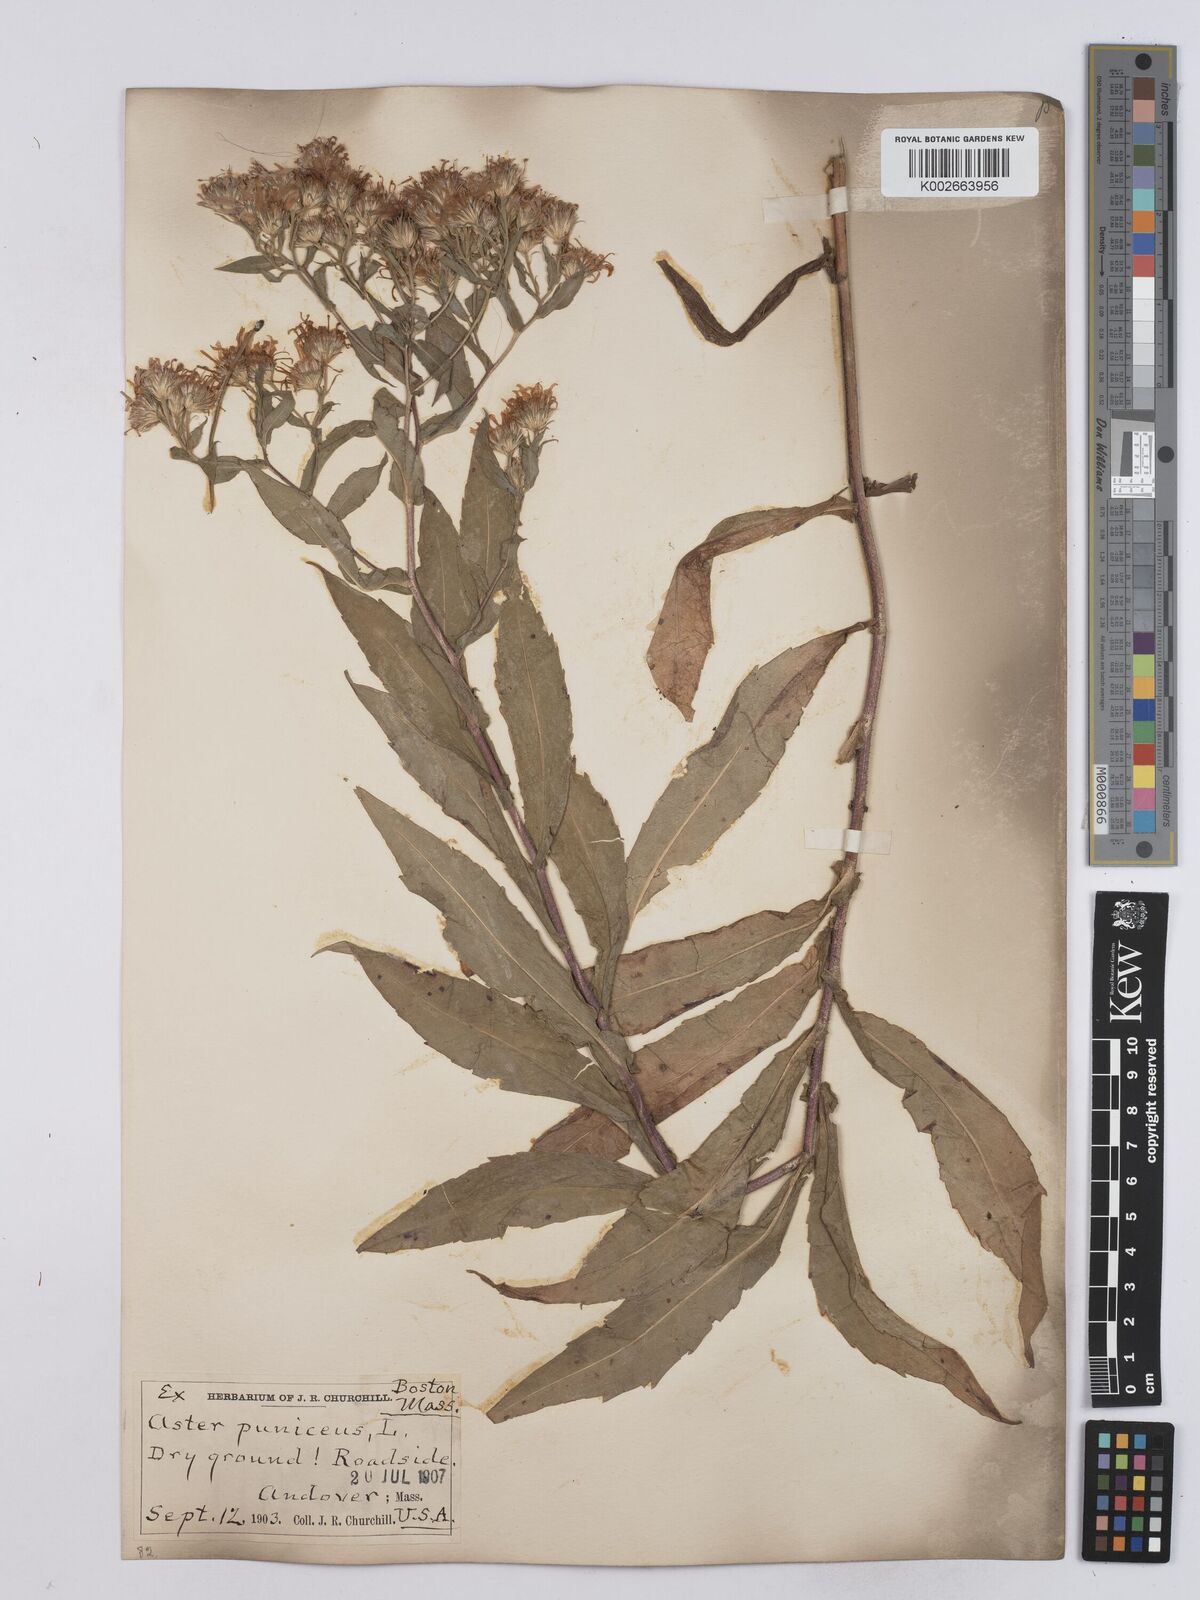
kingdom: Plantae
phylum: Tracheophyta
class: Magnoliopsida
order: Asterales
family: Asteraceae
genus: Symphyotrichum
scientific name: Symphyotrichum puniceum
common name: Bog aster
